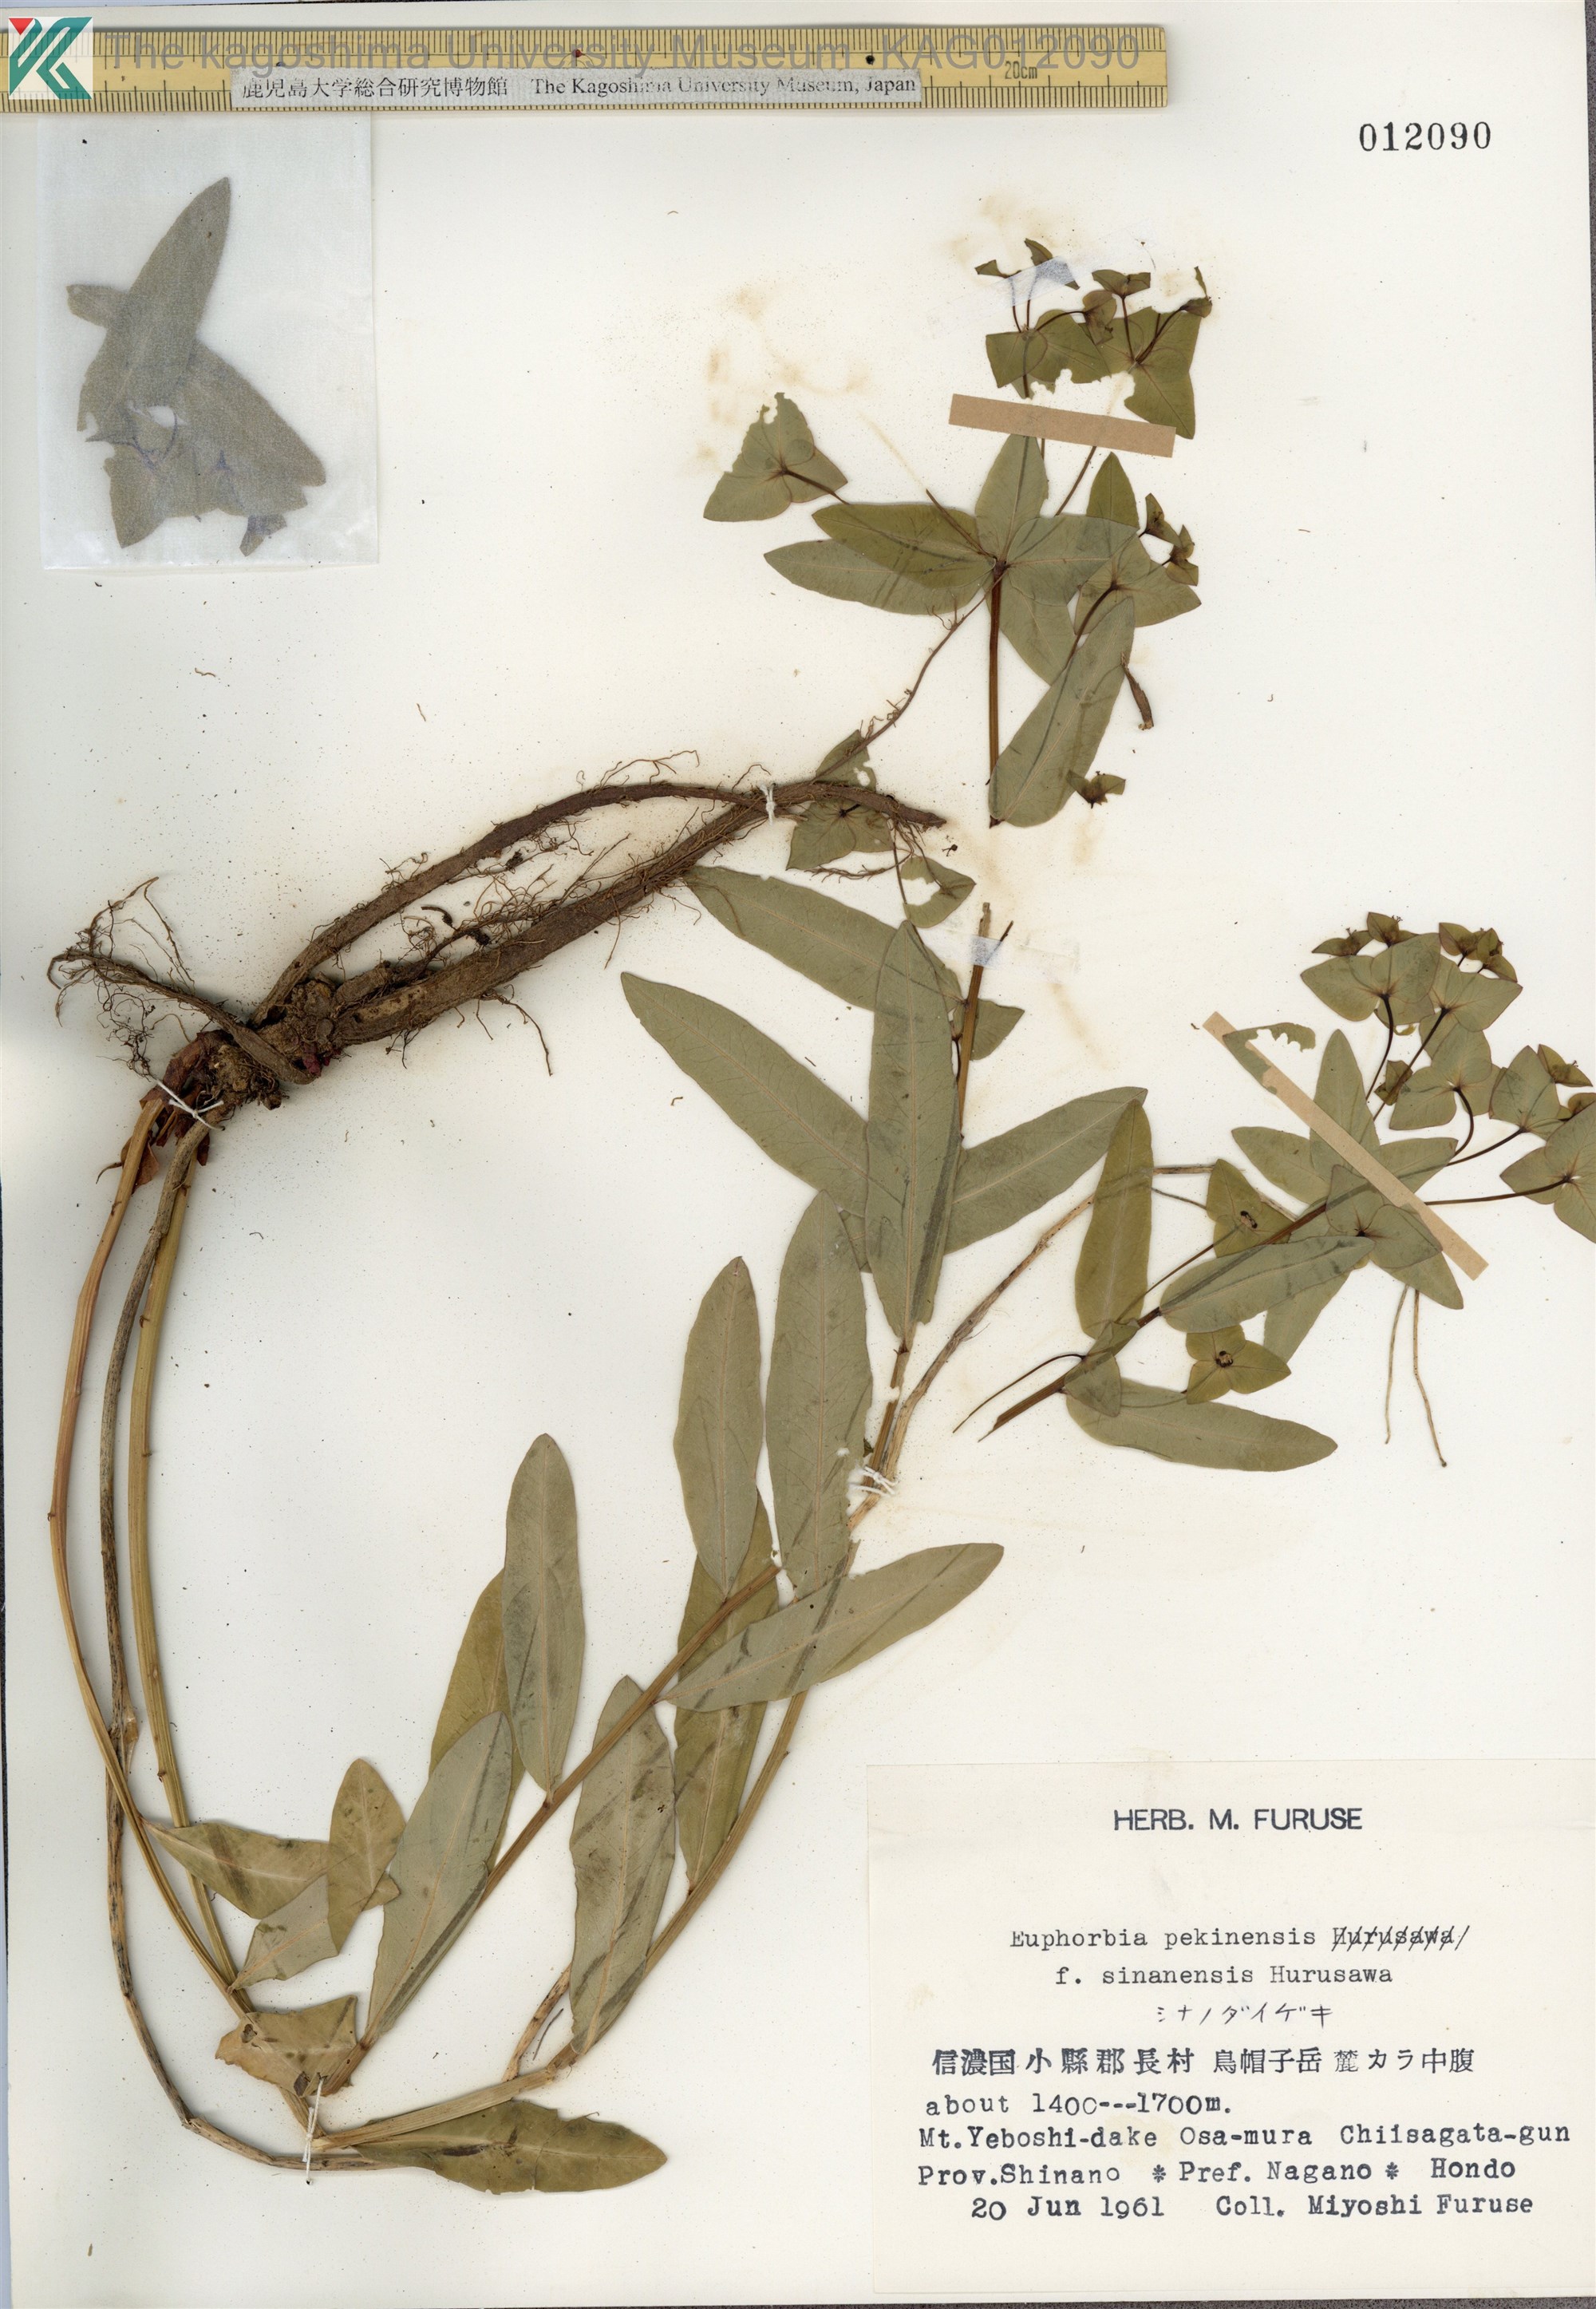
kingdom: Plantae
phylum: Tracheophyta
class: Magnoliopsida
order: Malpighiales
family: Euphorbiaceae
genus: Euphorbia
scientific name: Euphorbia pekinensis
